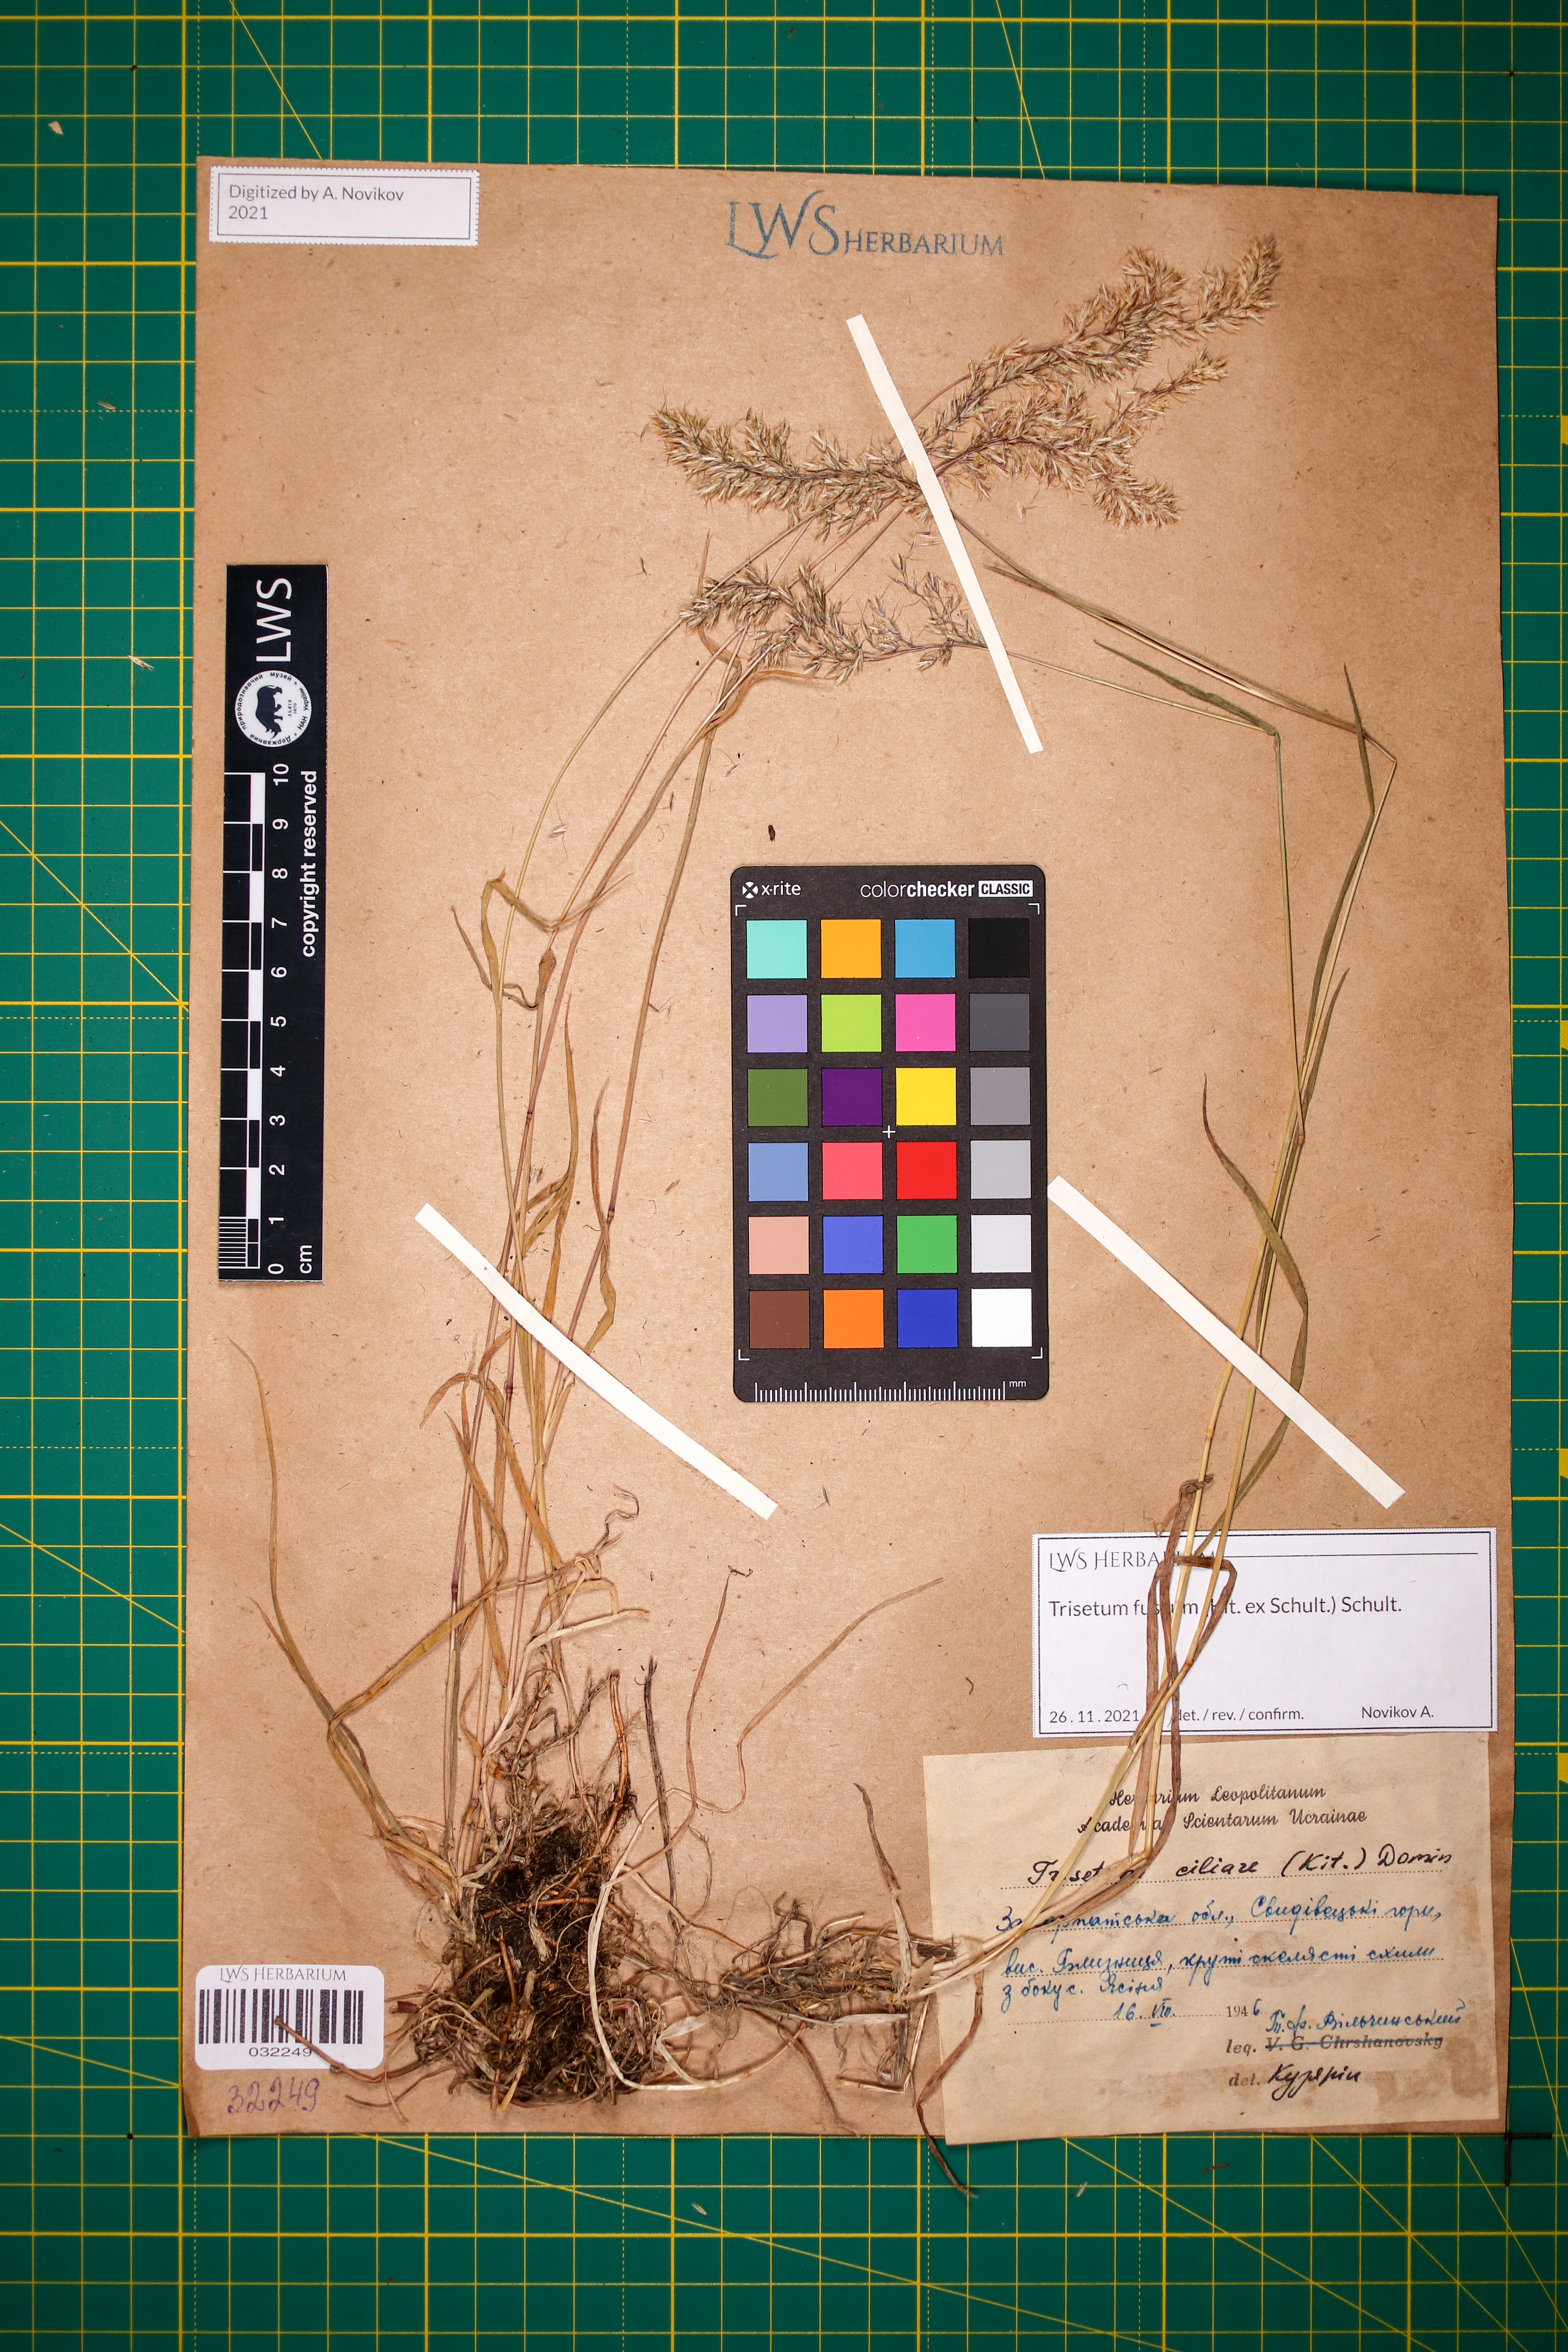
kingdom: Plantae
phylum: Tracheophyta
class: Liliopsida
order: Poales
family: Poaceae
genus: Trisetum
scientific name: Trisetum fuscum
